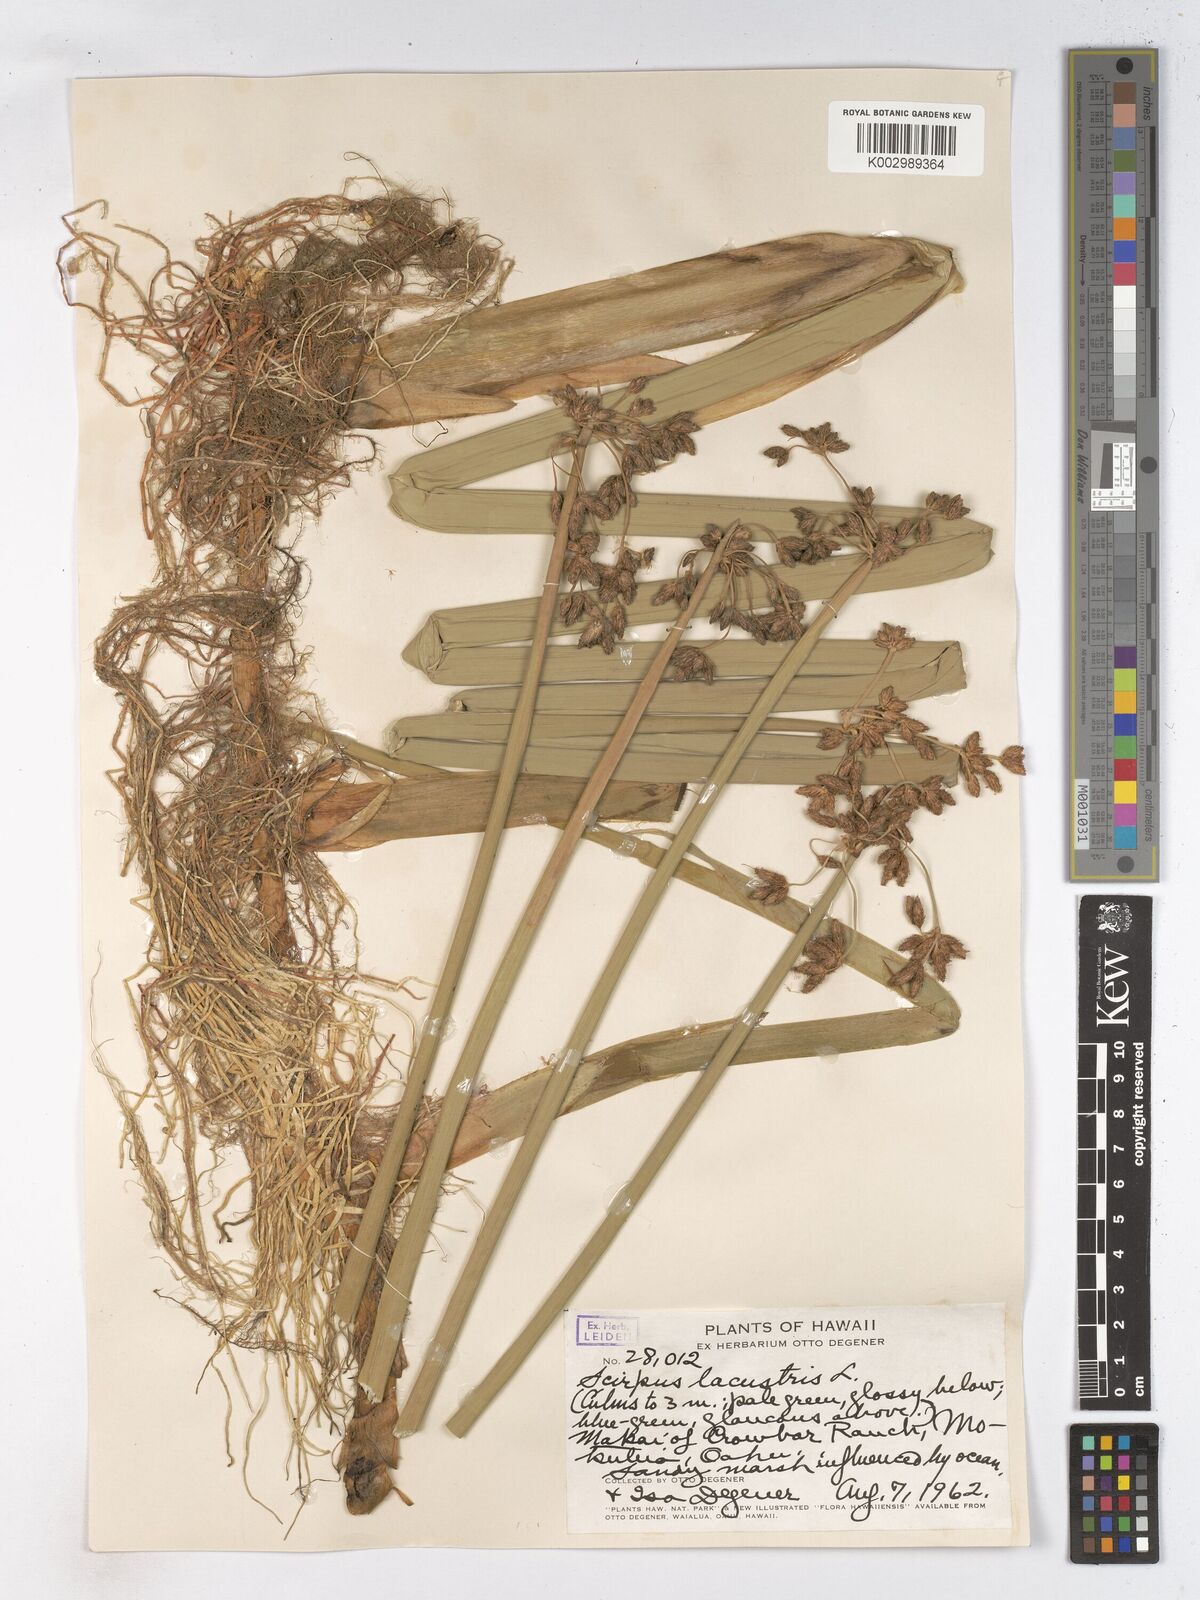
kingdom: Plantae
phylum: Tracheophyta
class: Liliopsida
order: Poales
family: Cyperaceae
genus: Schoenoplectus
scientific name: Schoenoplectus lacustris
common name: Common club-rush
